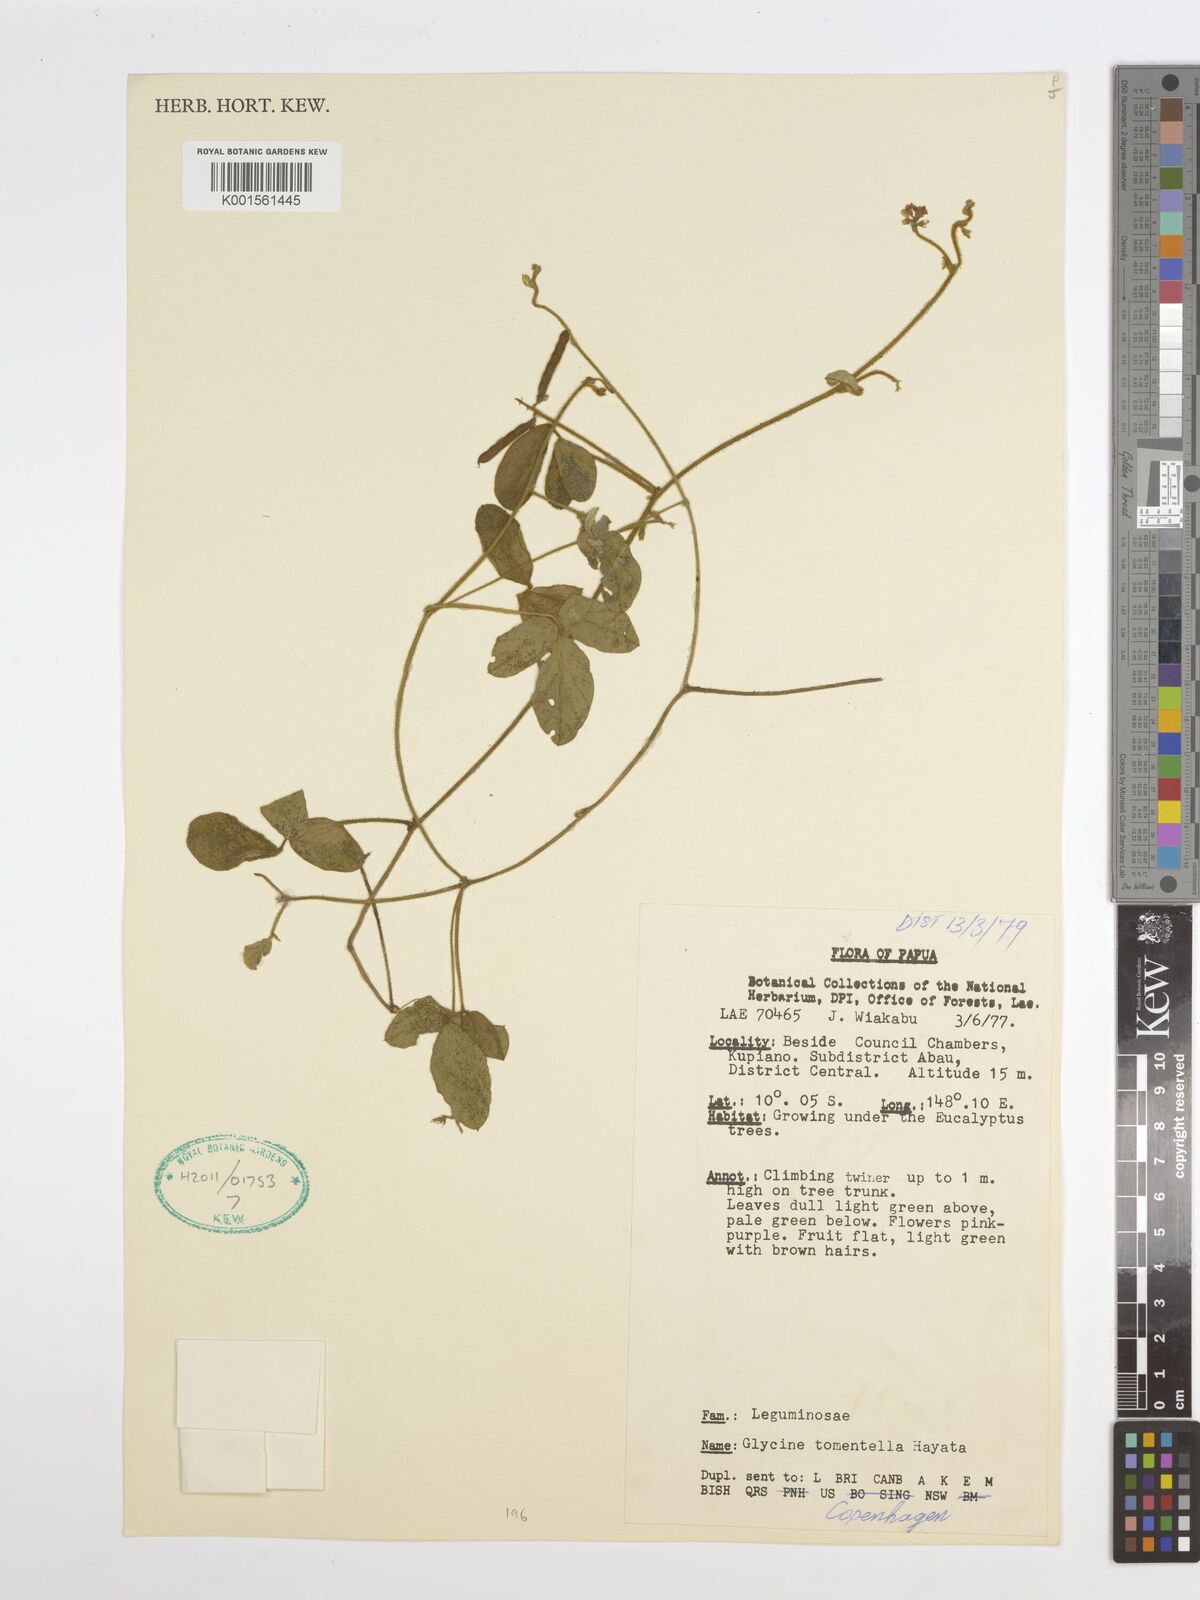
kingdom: Plantae
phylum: Tracheophyta
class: Magnoliopsida
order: Fabales
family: Fabaceae
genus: Glycine
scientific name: Glycine tomentella
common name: Hairy glycine
